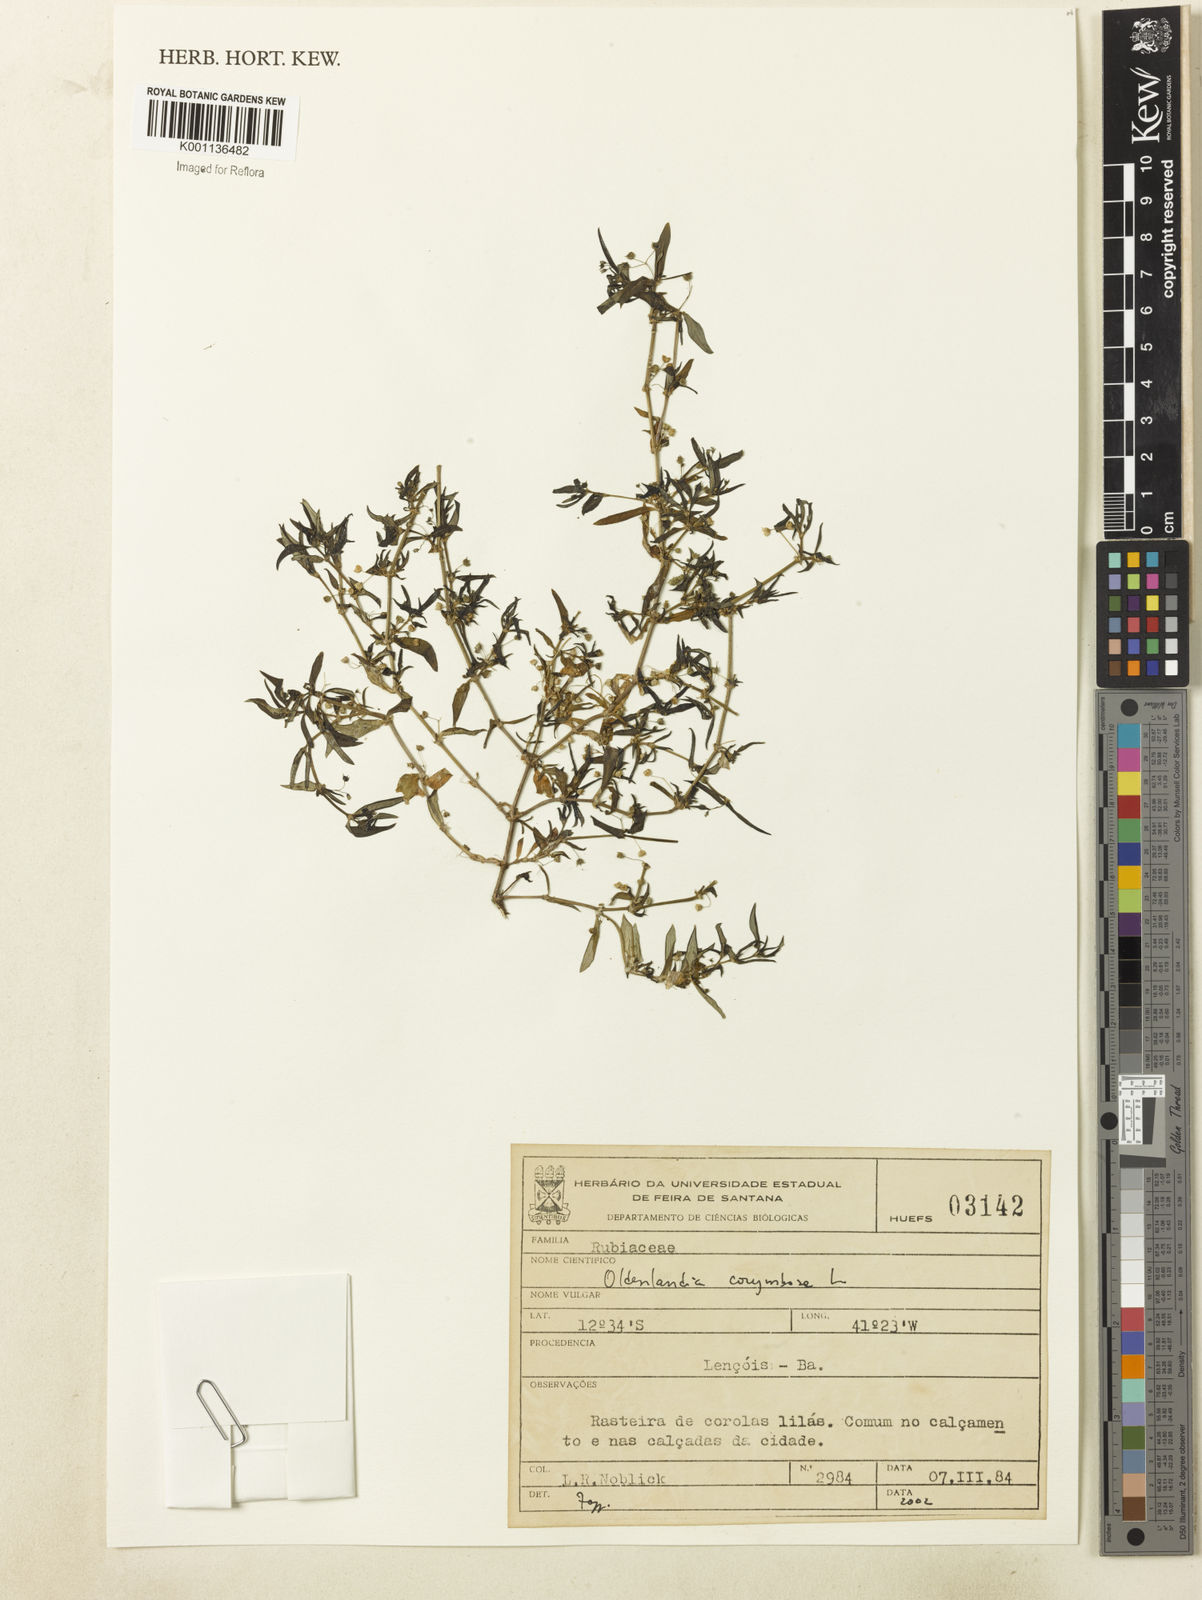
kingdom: Plantae
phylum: Tracheophyta
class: Magnoliopsida
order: Gentianales
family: Rubiaceae
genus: Oldenlandia
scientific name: Oldenlandia corymbosa
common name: Flat-top mille graines
